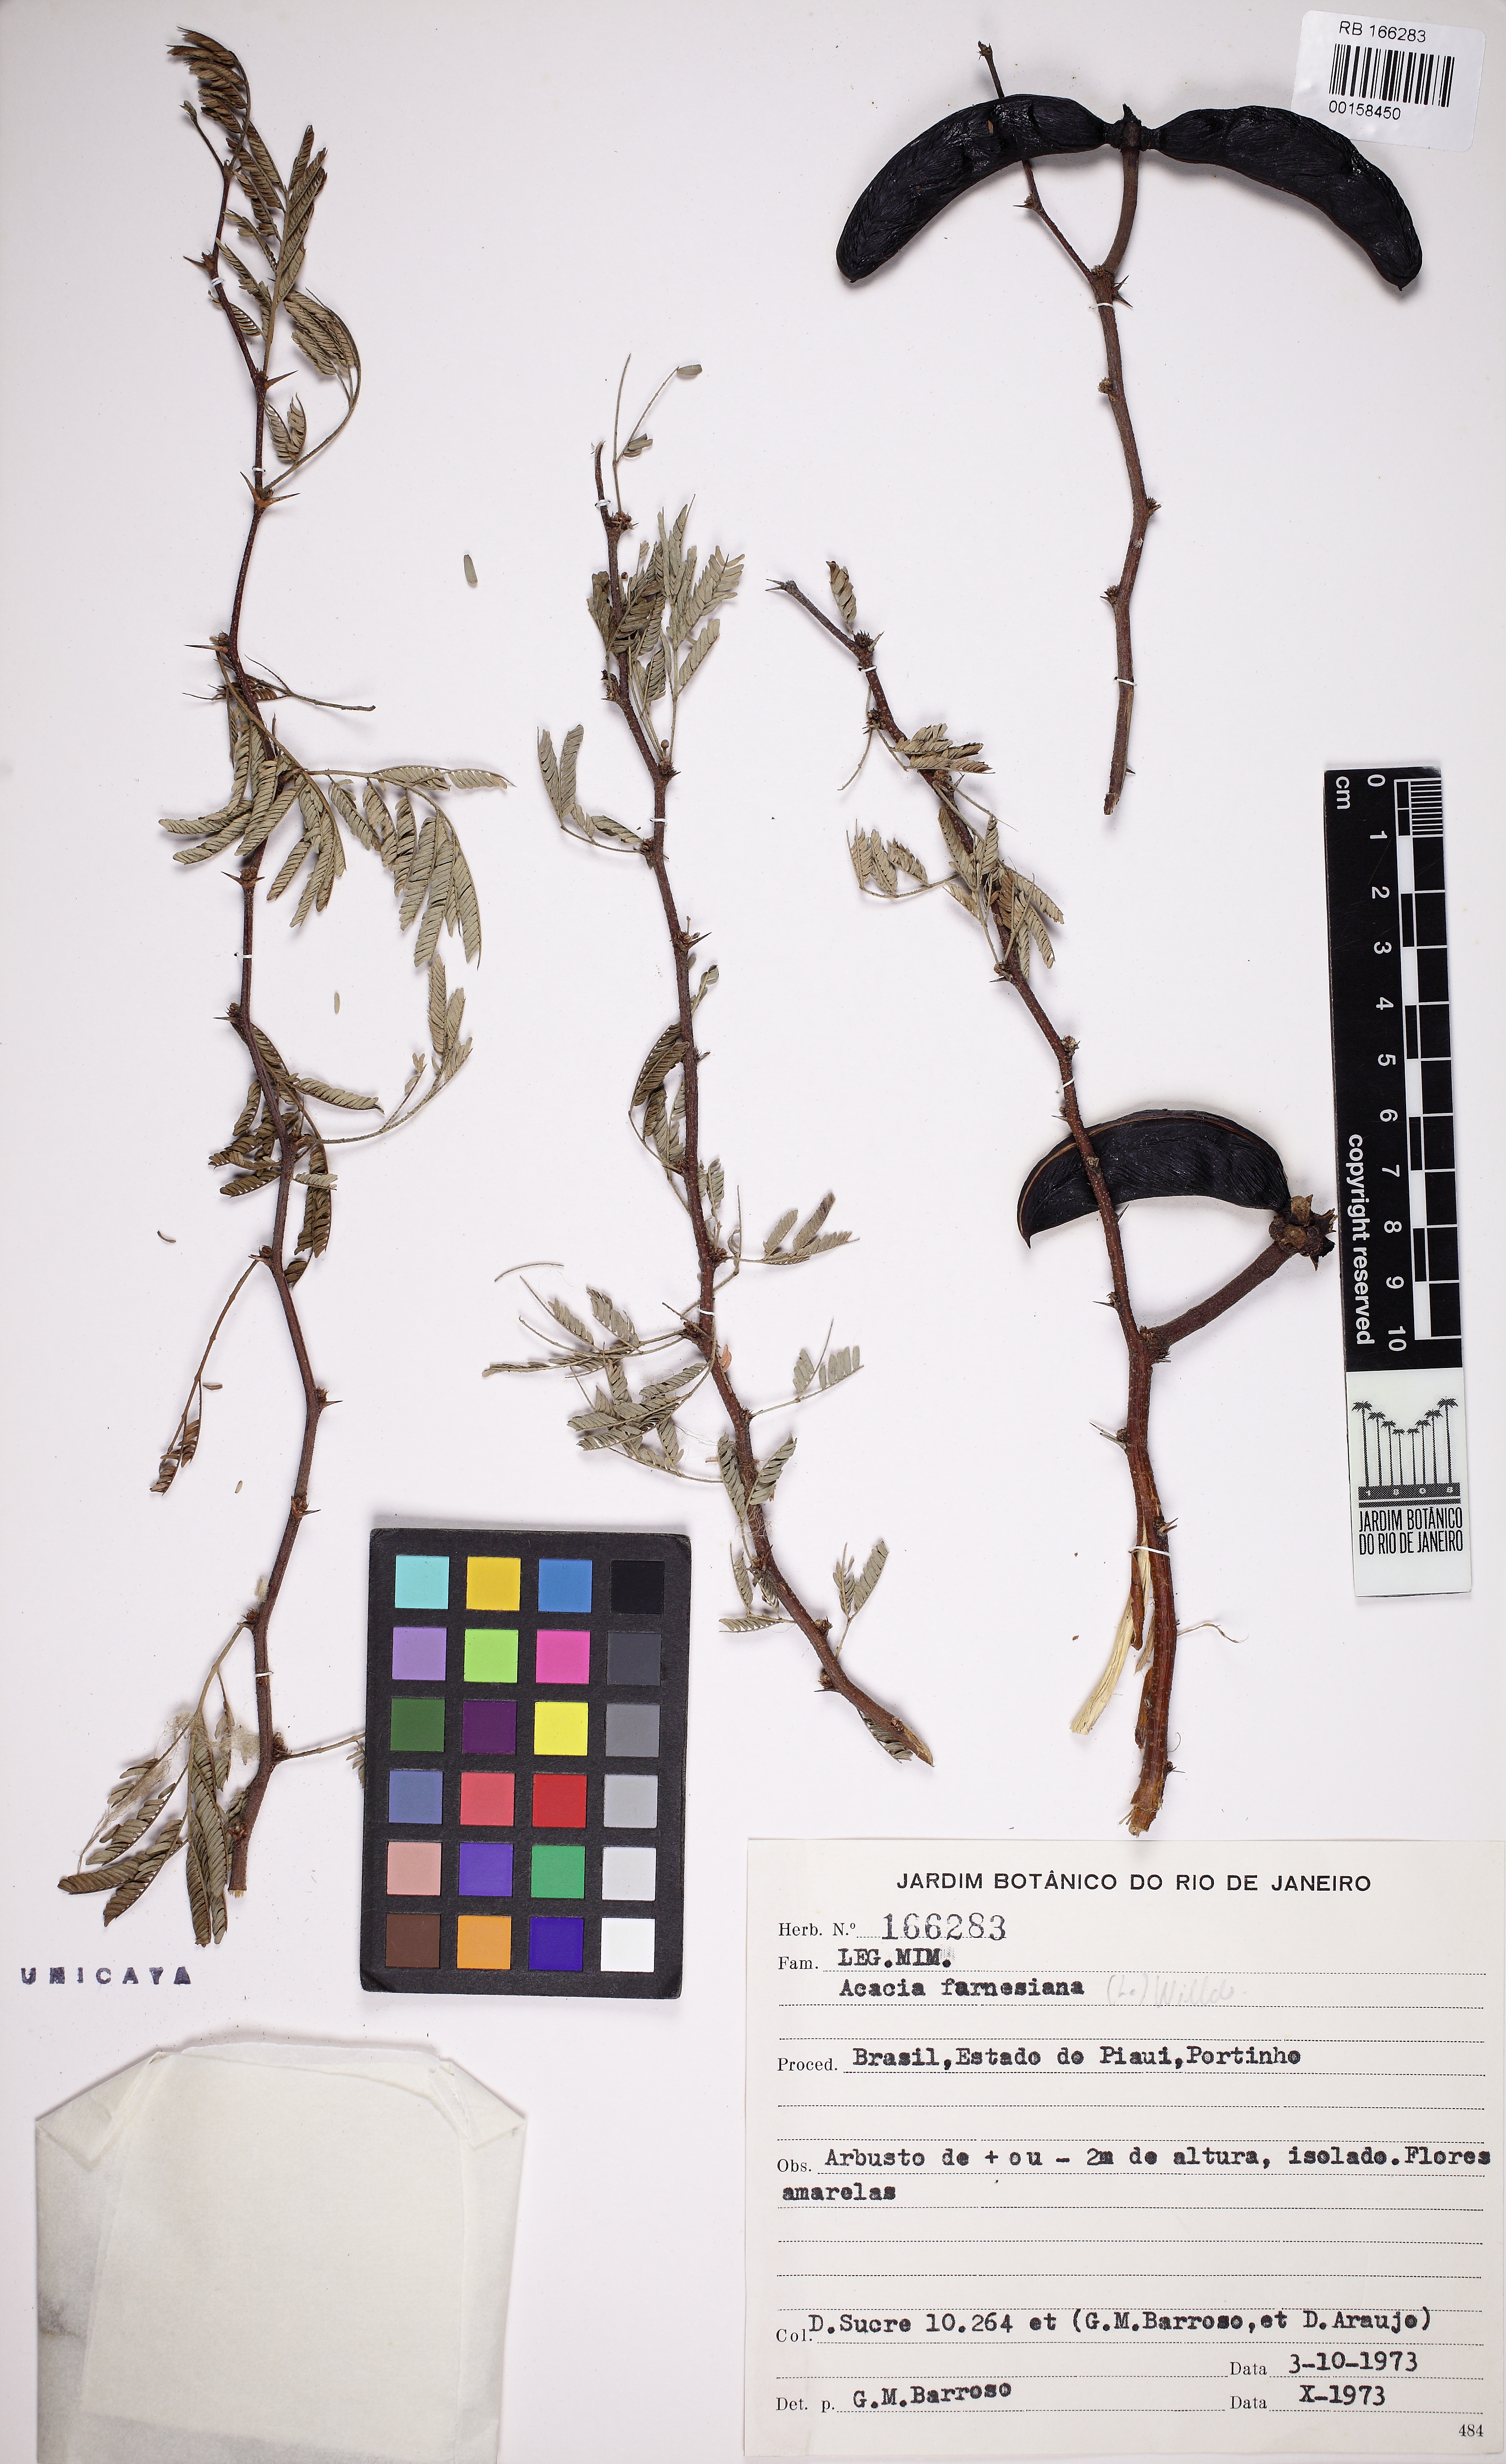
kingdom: Plantae
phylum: Tracheophyta
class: Magnoliopsida
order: Fabales
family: Fabaceae
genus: Vachellia
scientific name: Vachellia farnesiana
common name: Sweet acacia
